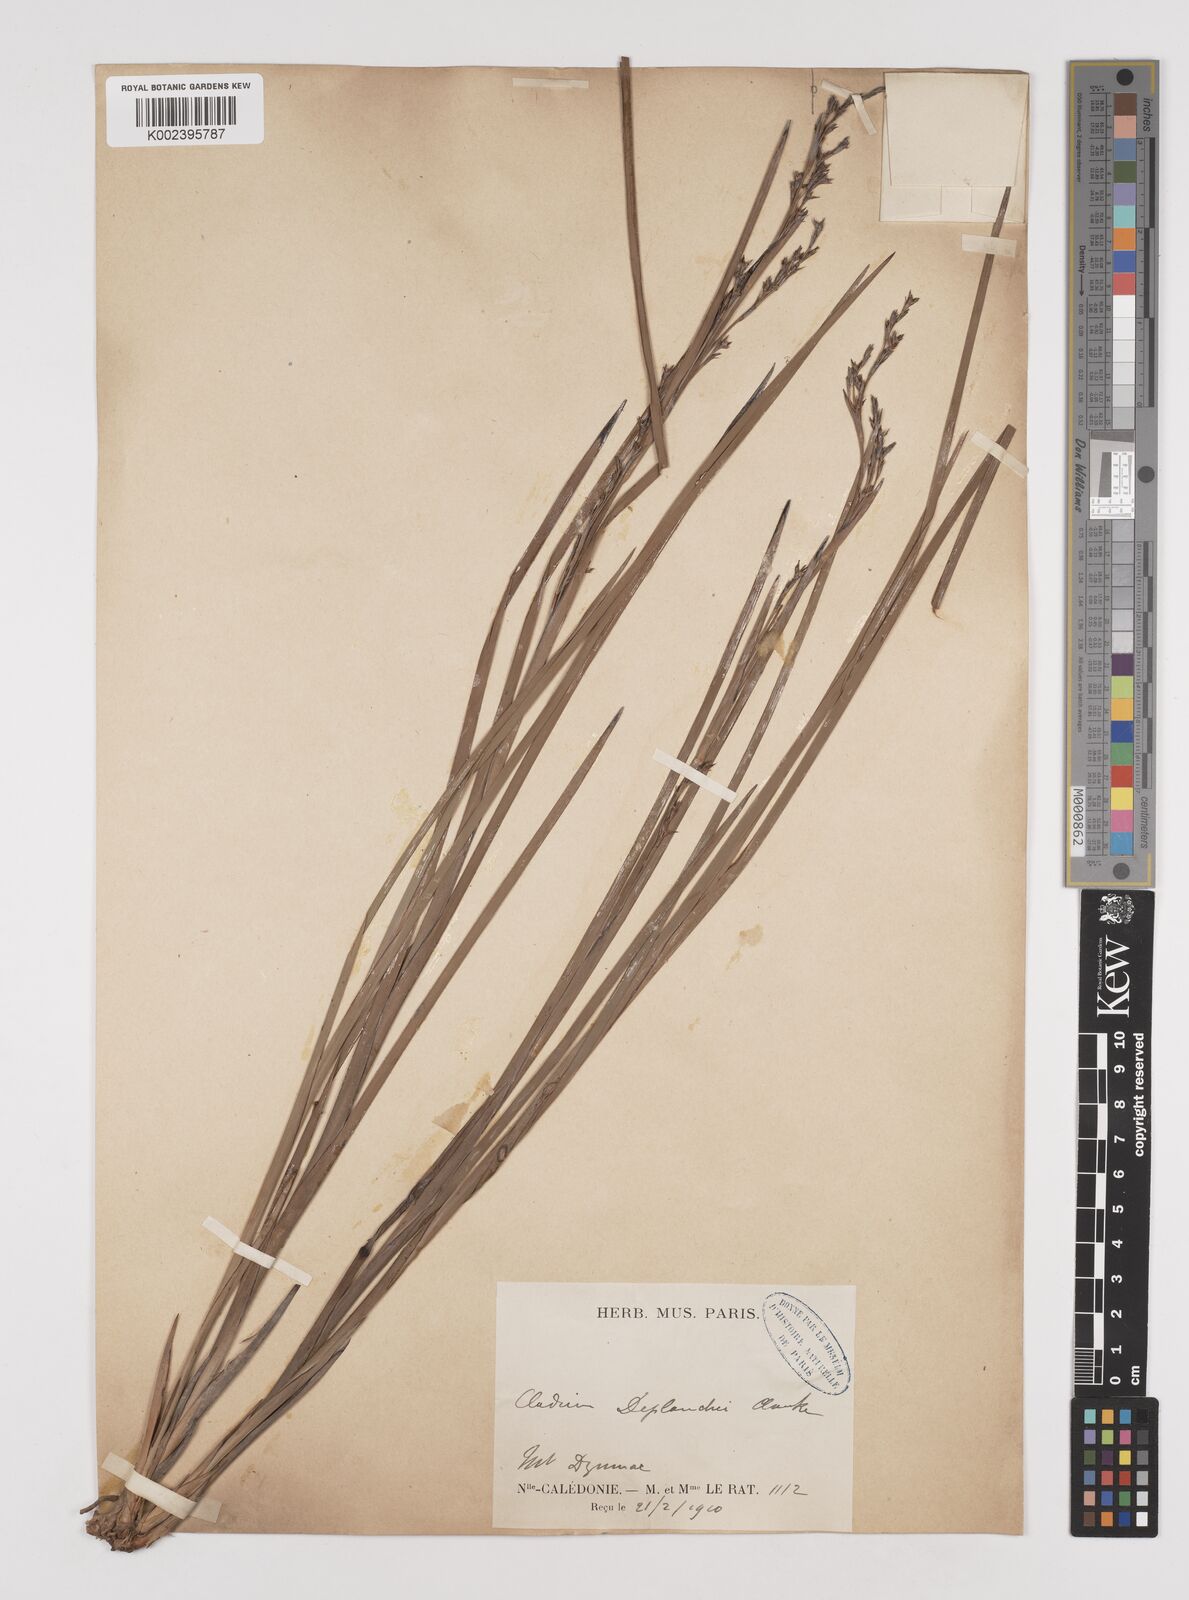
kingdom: Plantae
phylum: Tracheophyta
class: Liliopsida
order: Poales
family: Cyperaceae
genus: Machaerina
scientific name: Machaerina deplanchei
